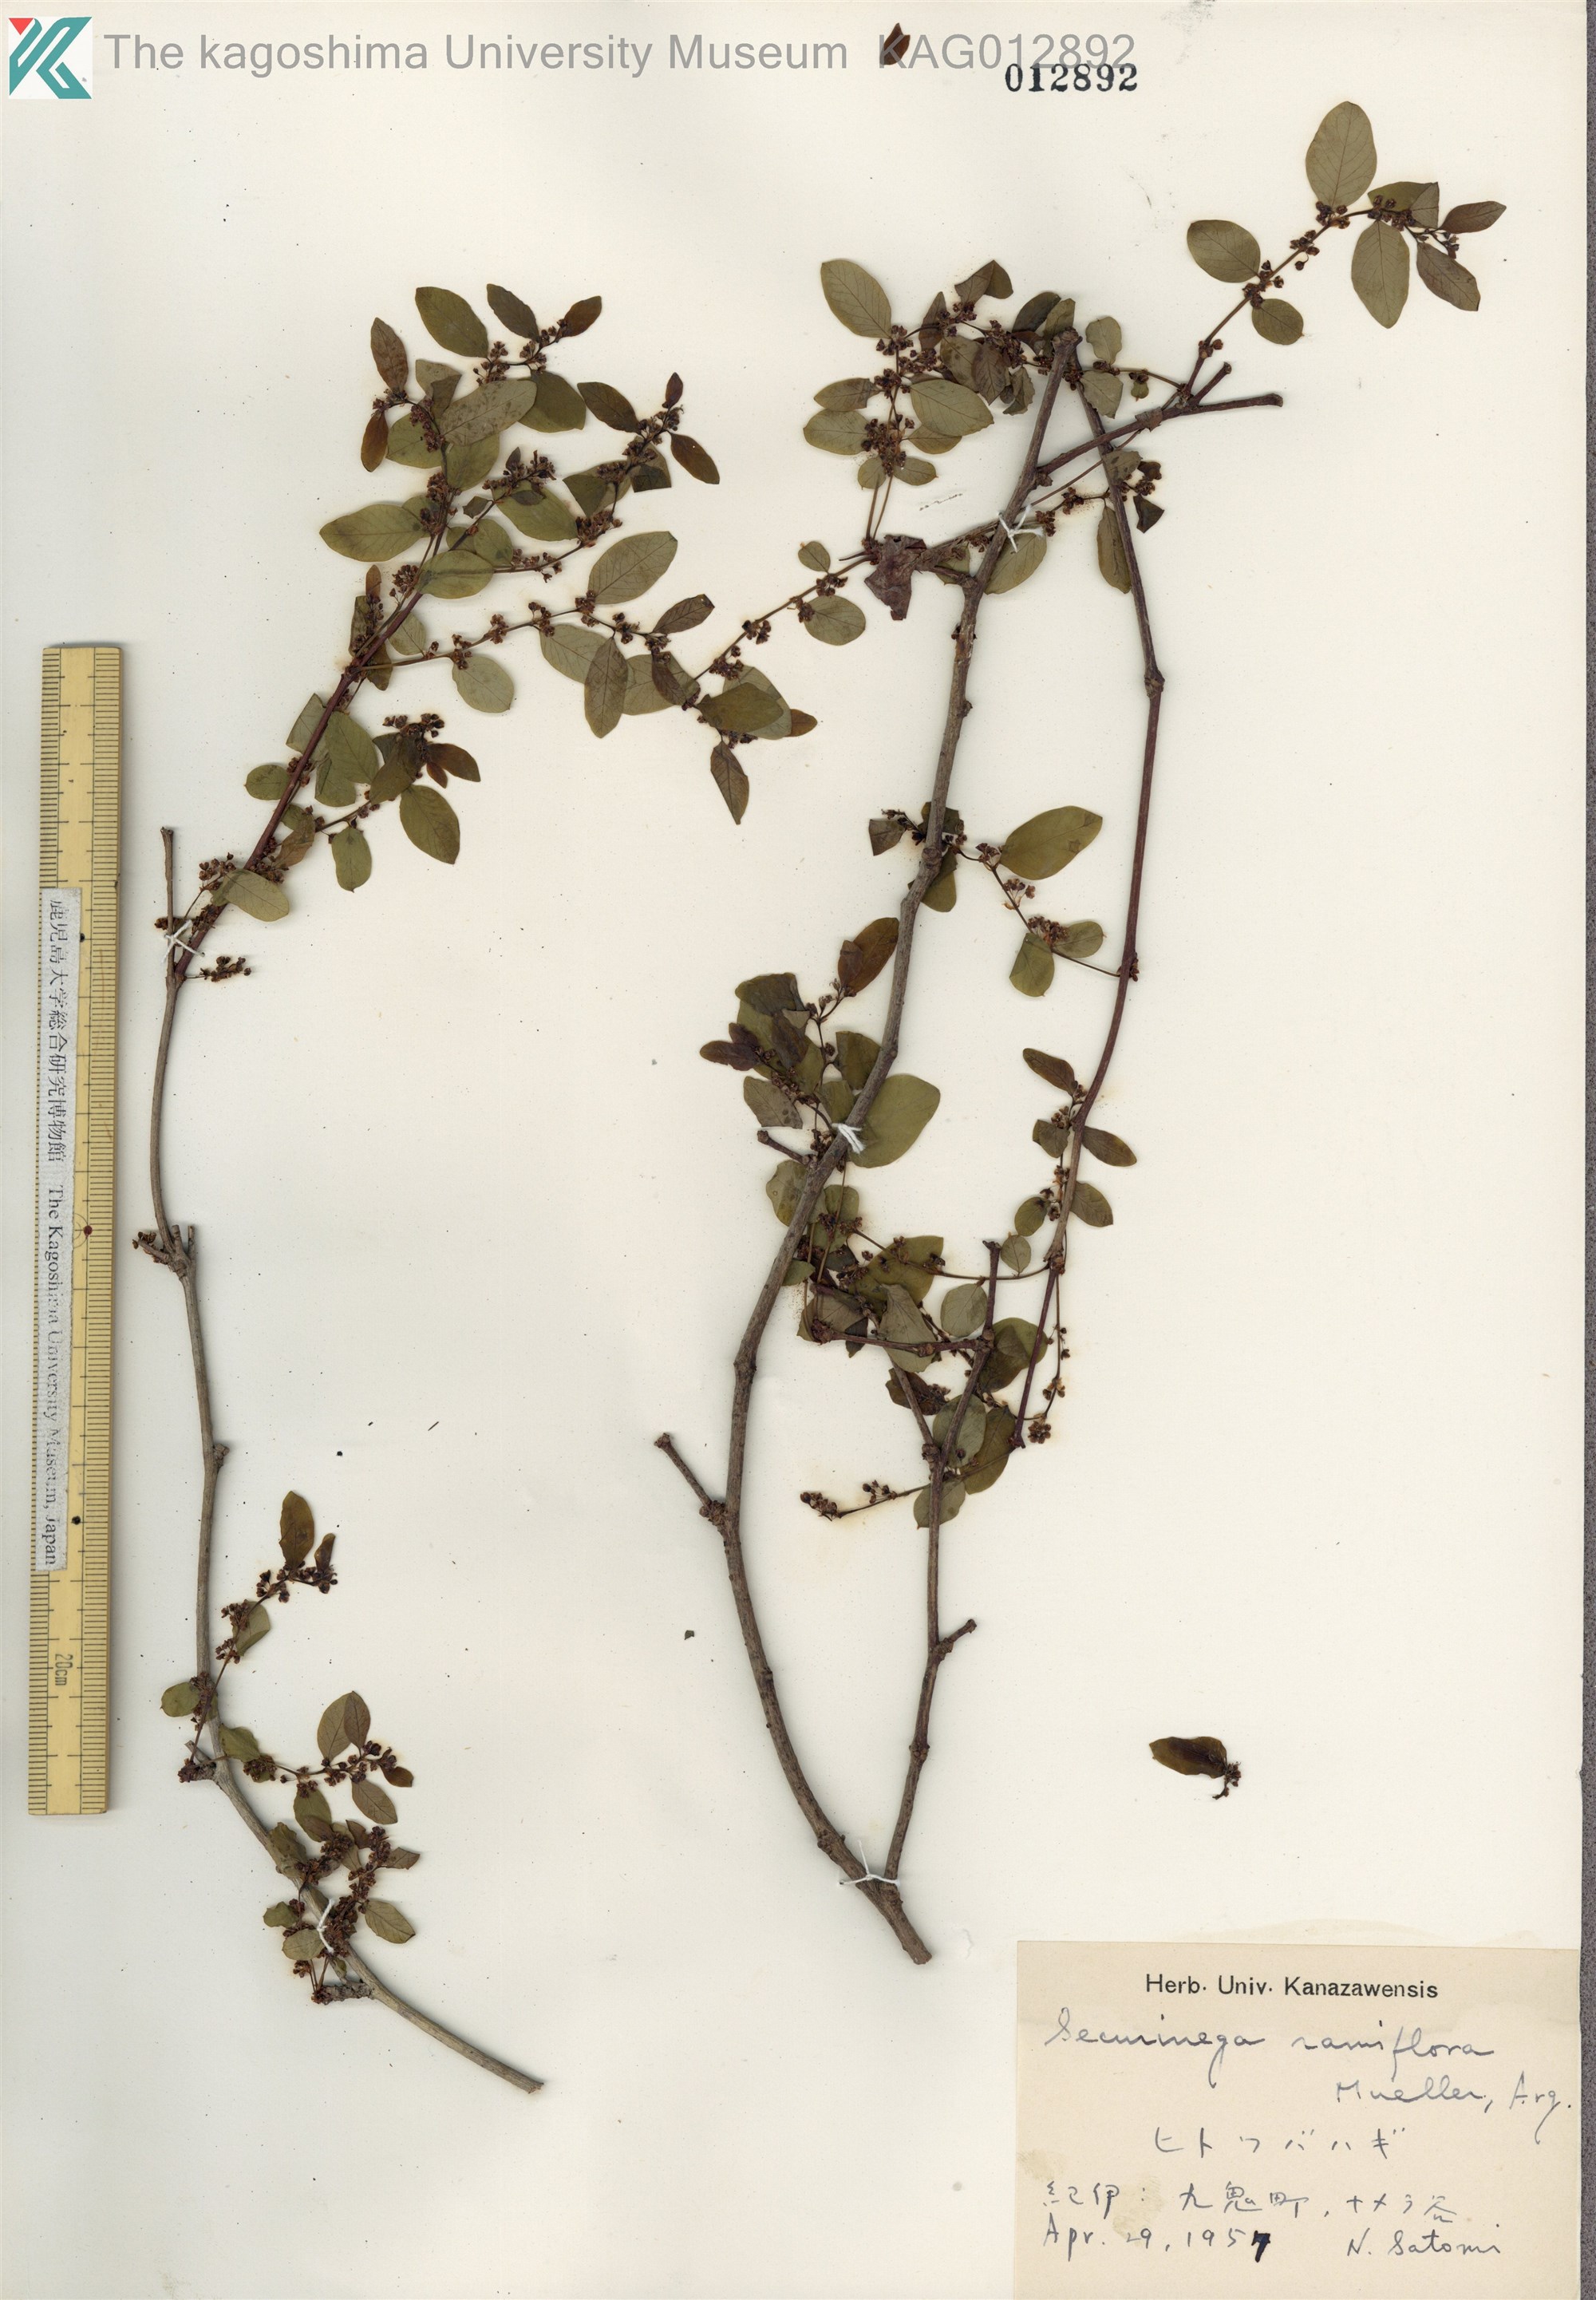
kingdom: Plantae
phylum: Tracheophyta
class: Magnoliopsida
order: Malpighiales
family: Phyllanthaceae
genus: Phyllanthus
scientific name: Phyllanthus flexuosus
